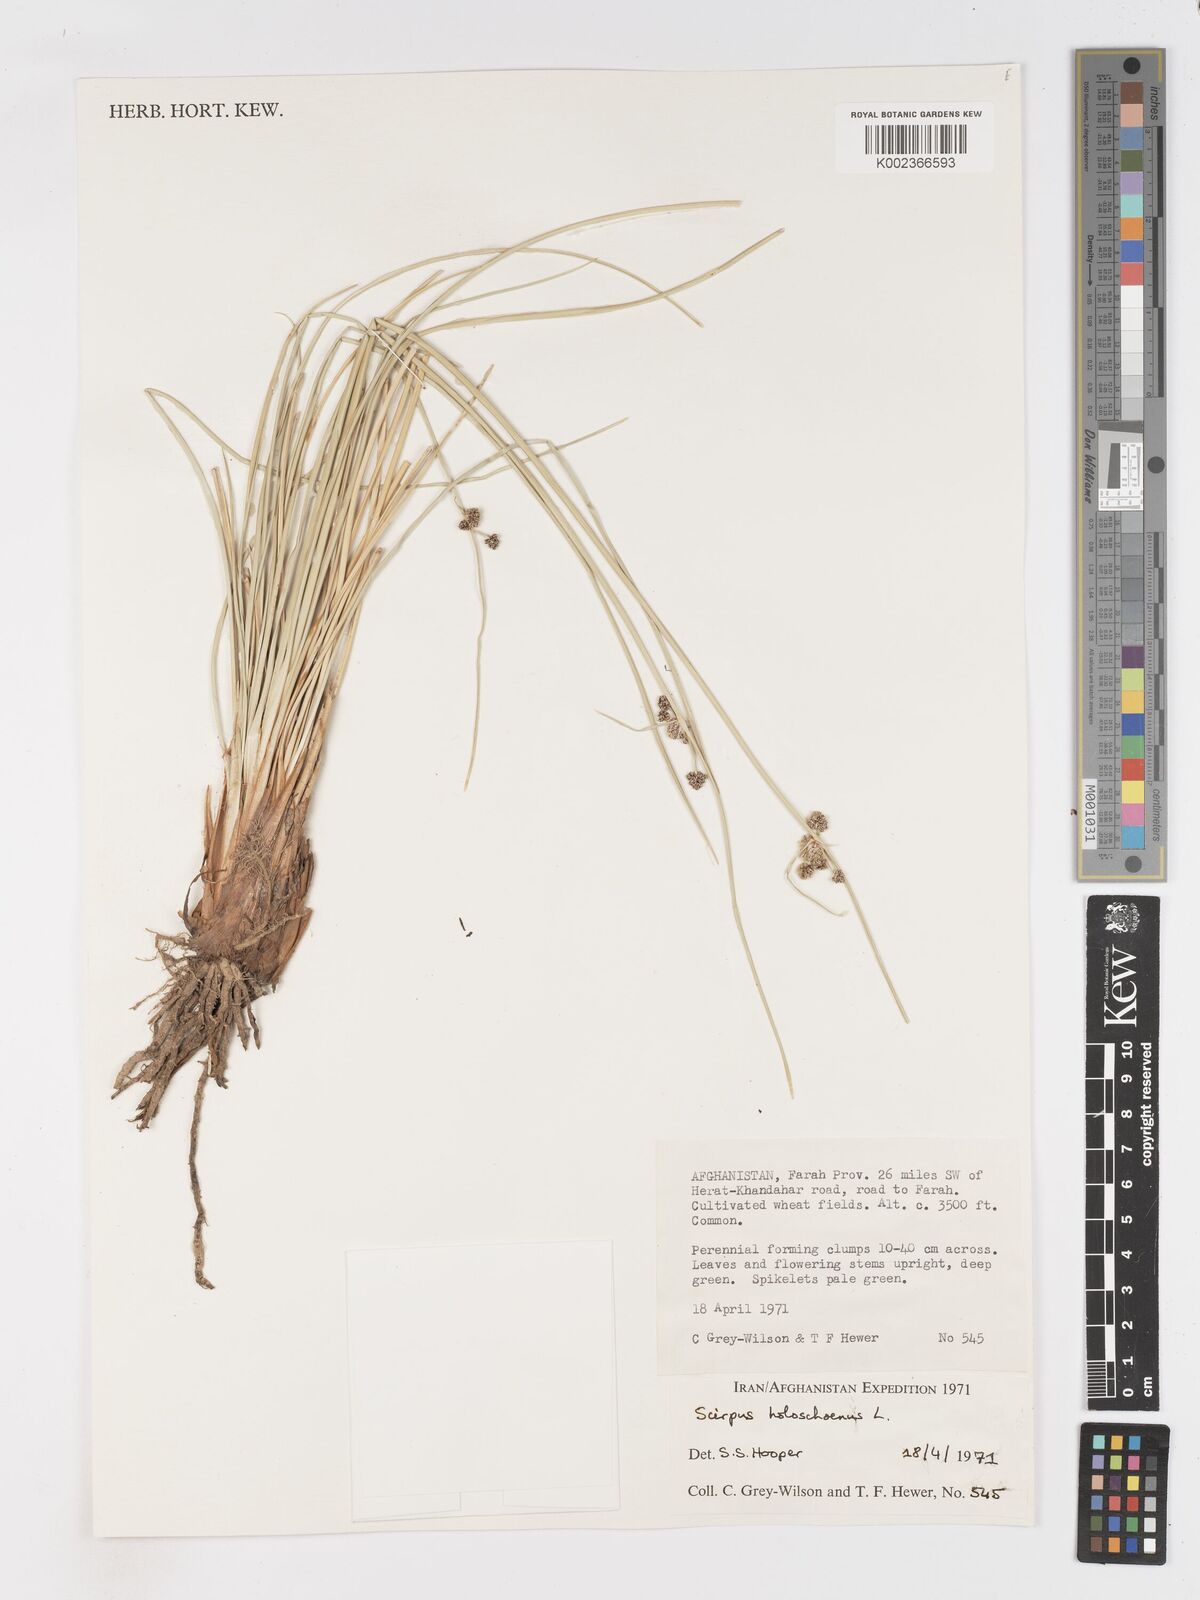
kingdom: Plantae
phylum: Tracheophyta
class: Liliopsida
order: Poales
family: Cyperaceae
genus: Scirpoides
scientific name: Scirpoides holoschoenus
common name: Round-headed club-rush
